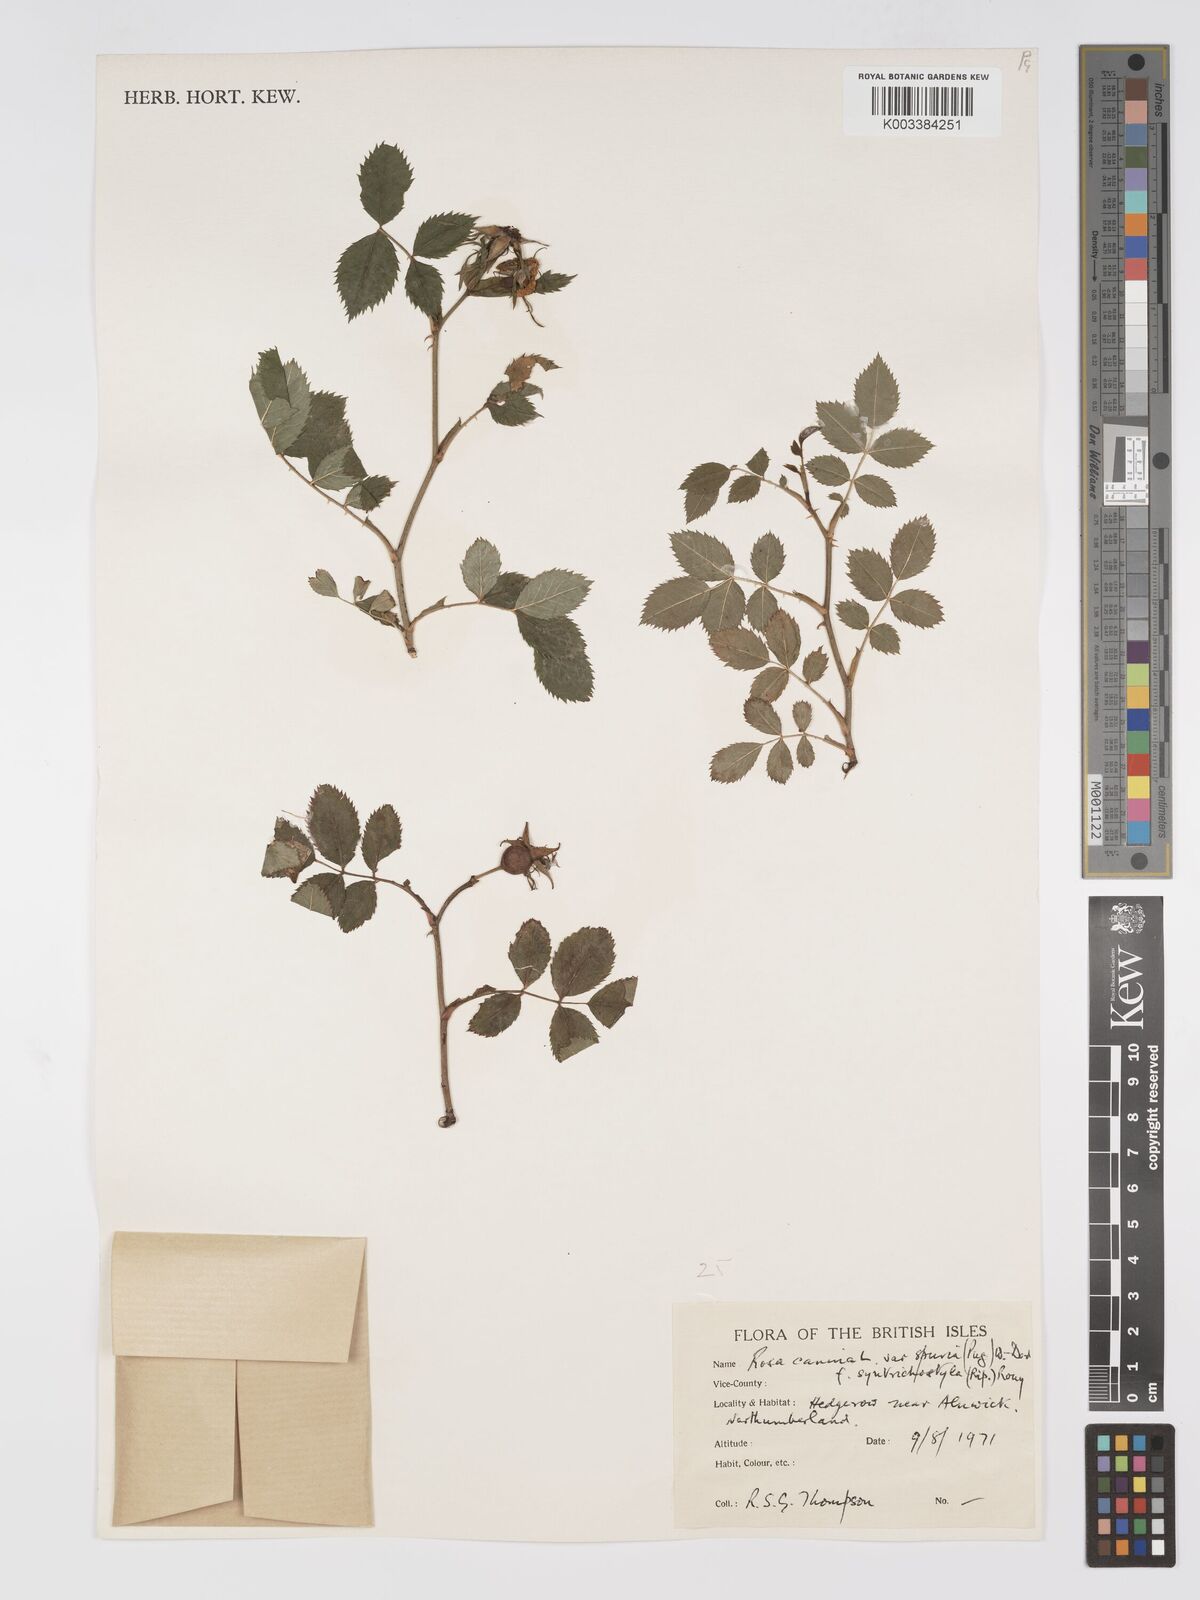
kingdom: Plantae
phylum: Tracheophyta
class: Magnoliopsida
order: Rosales
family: Rosaceae
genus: Rosa
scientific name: Rosa canina
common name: Dog rose
